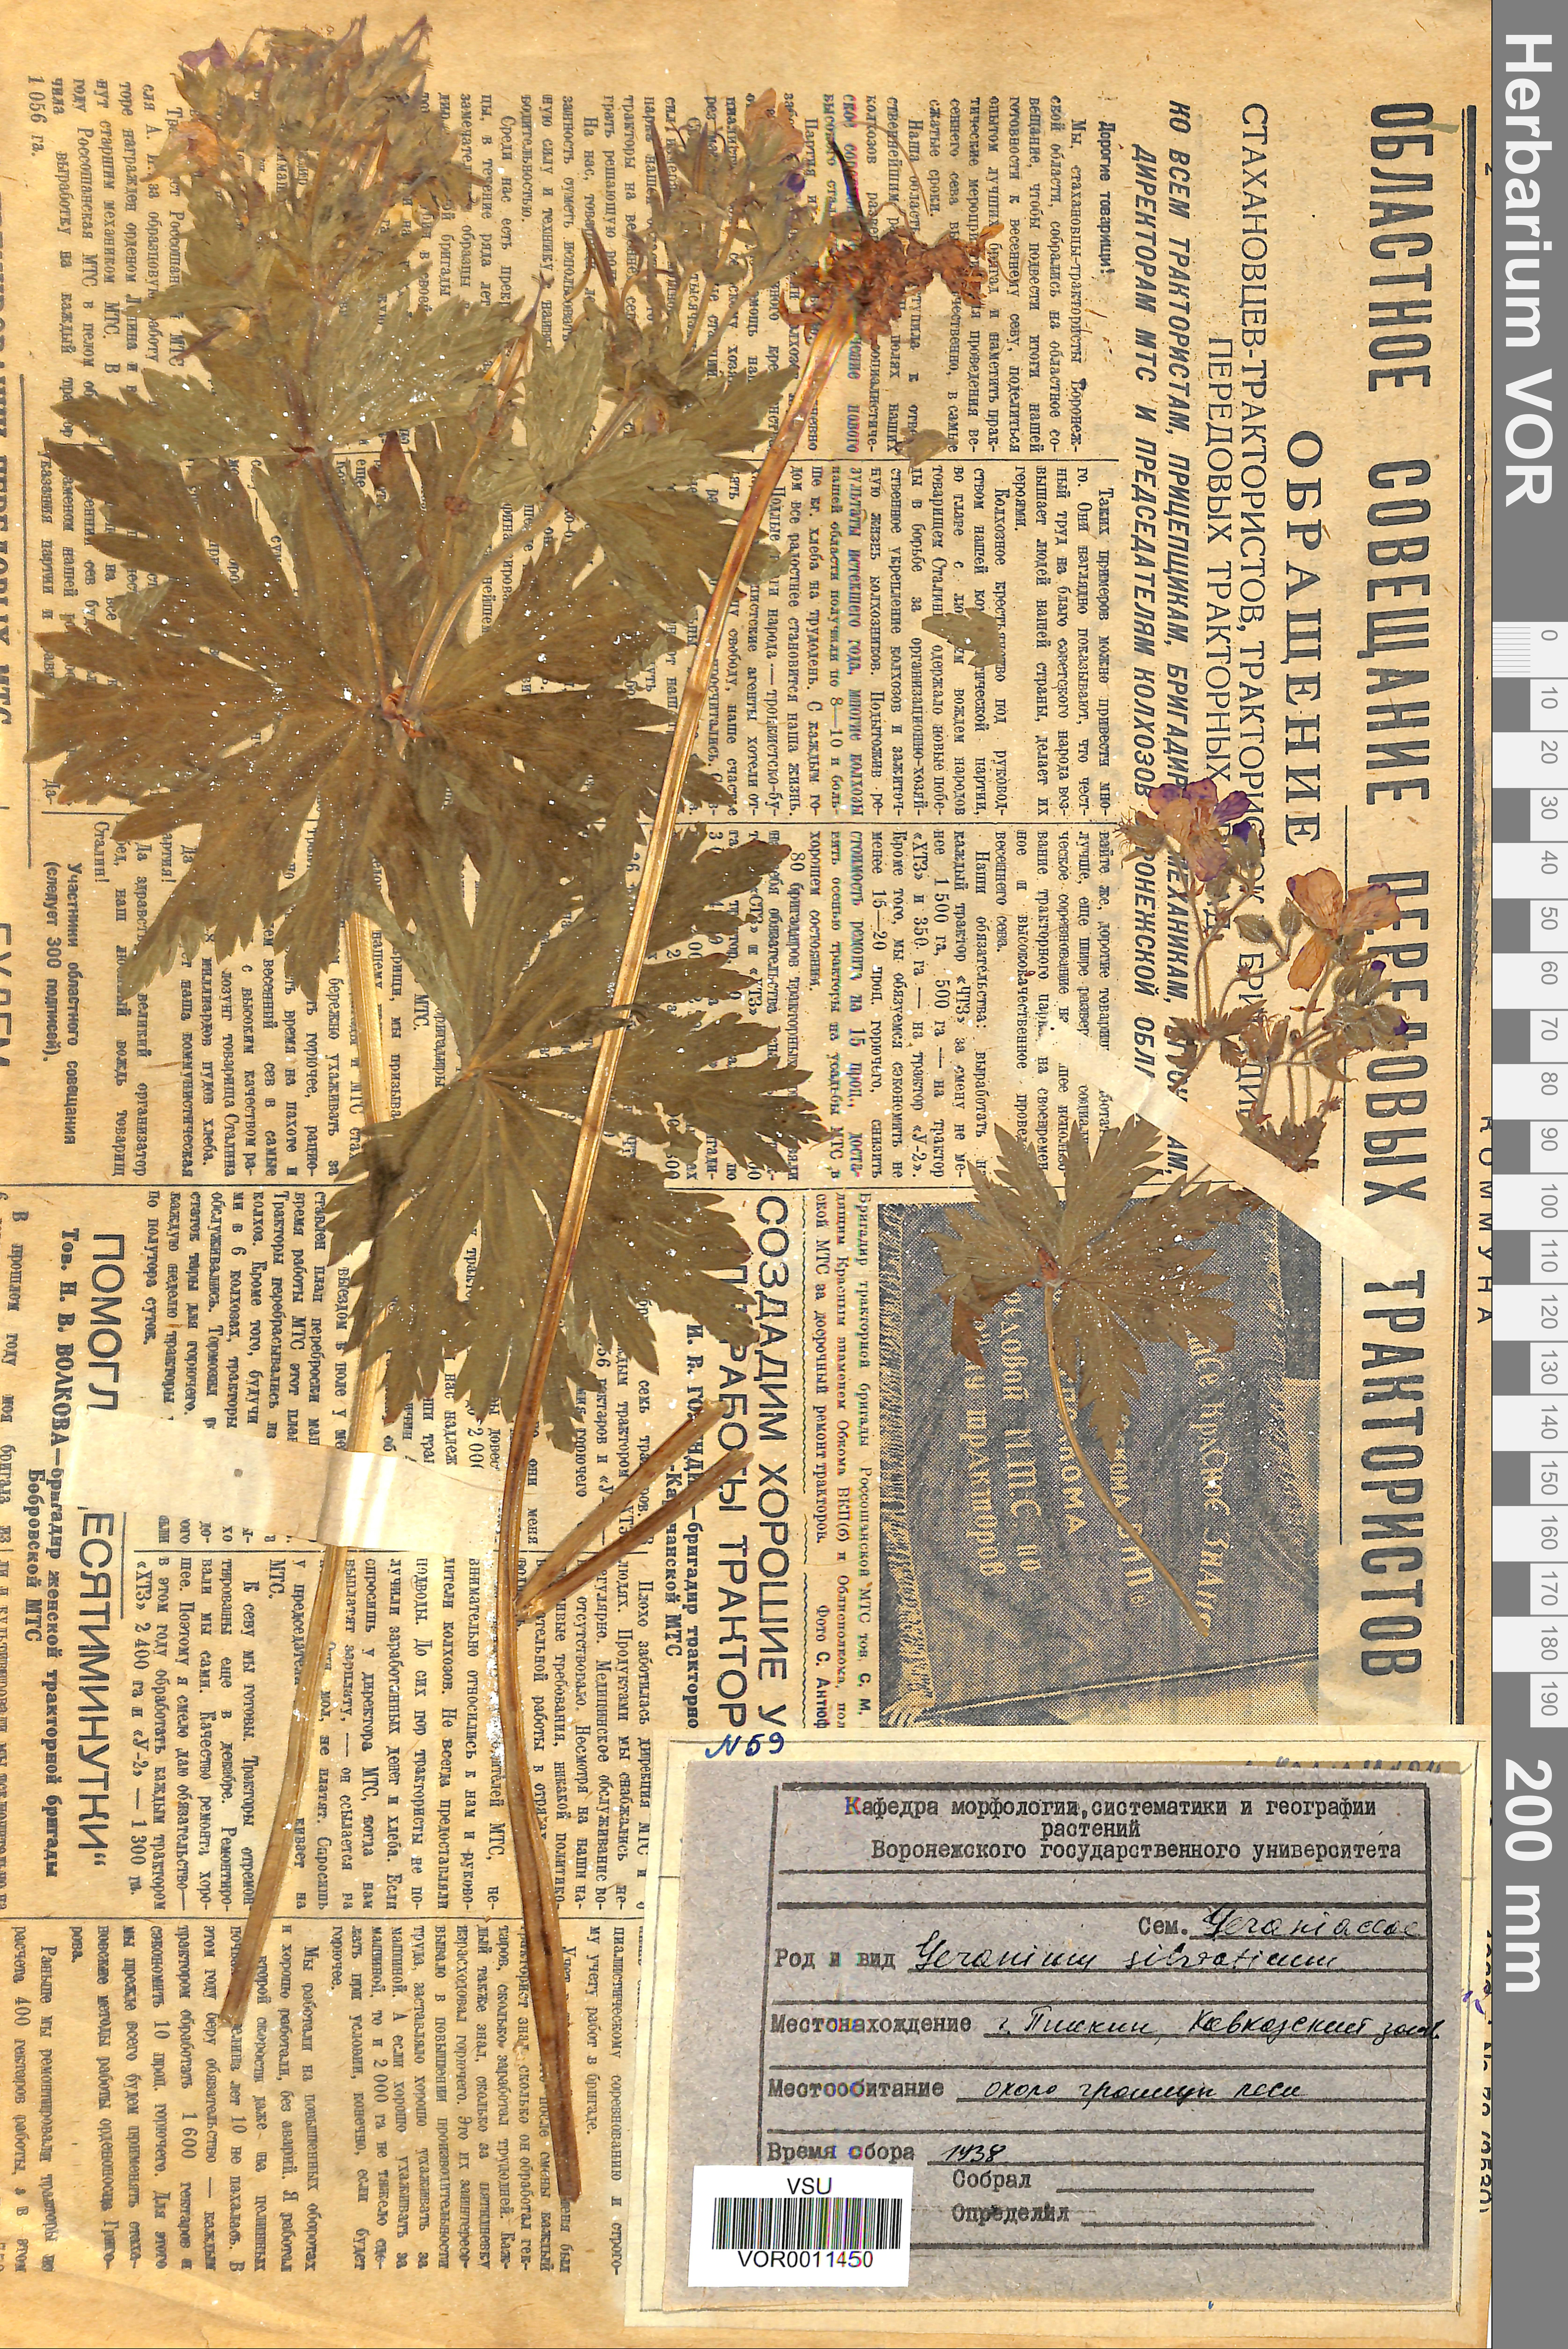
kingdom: Plantae
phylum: Tracheophyta
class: Magnoliopsida
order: Geraniales
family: Geraniaceae
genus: Geranium
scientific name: Geranium sibiricum
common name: Siberian crane's-bill
